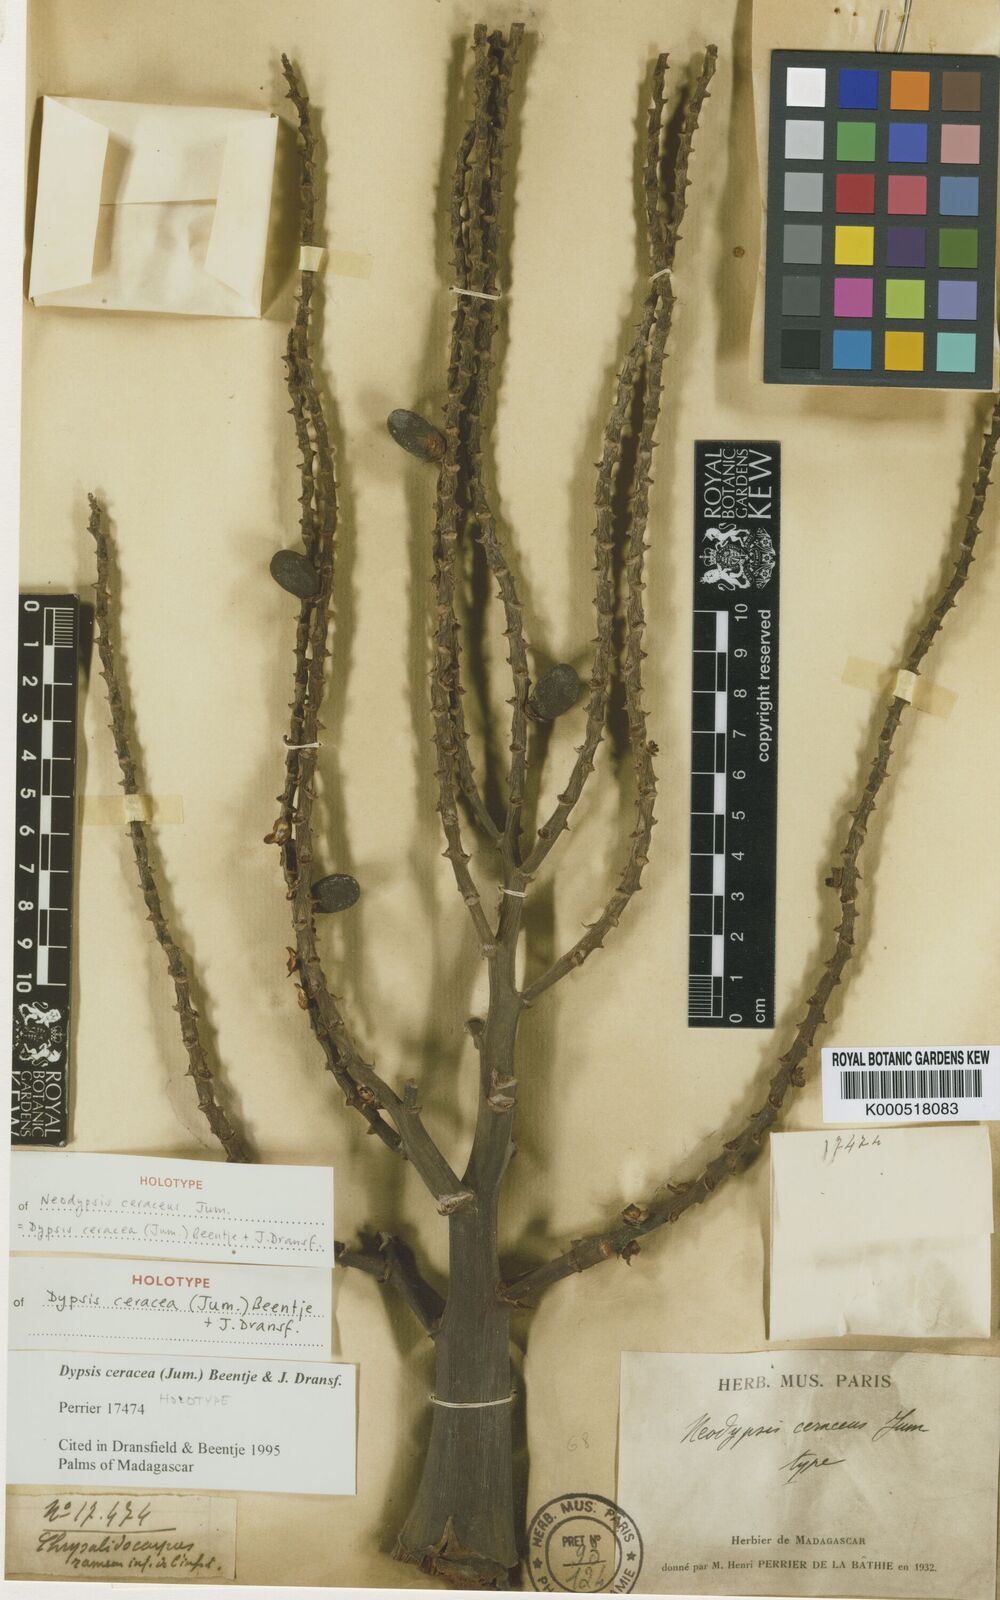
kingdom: Plantae
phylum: Tracheophyta
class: Liliopsida
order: Arecales
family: Arecaceae
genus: Dypsis
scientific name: Dypsis ceracea
